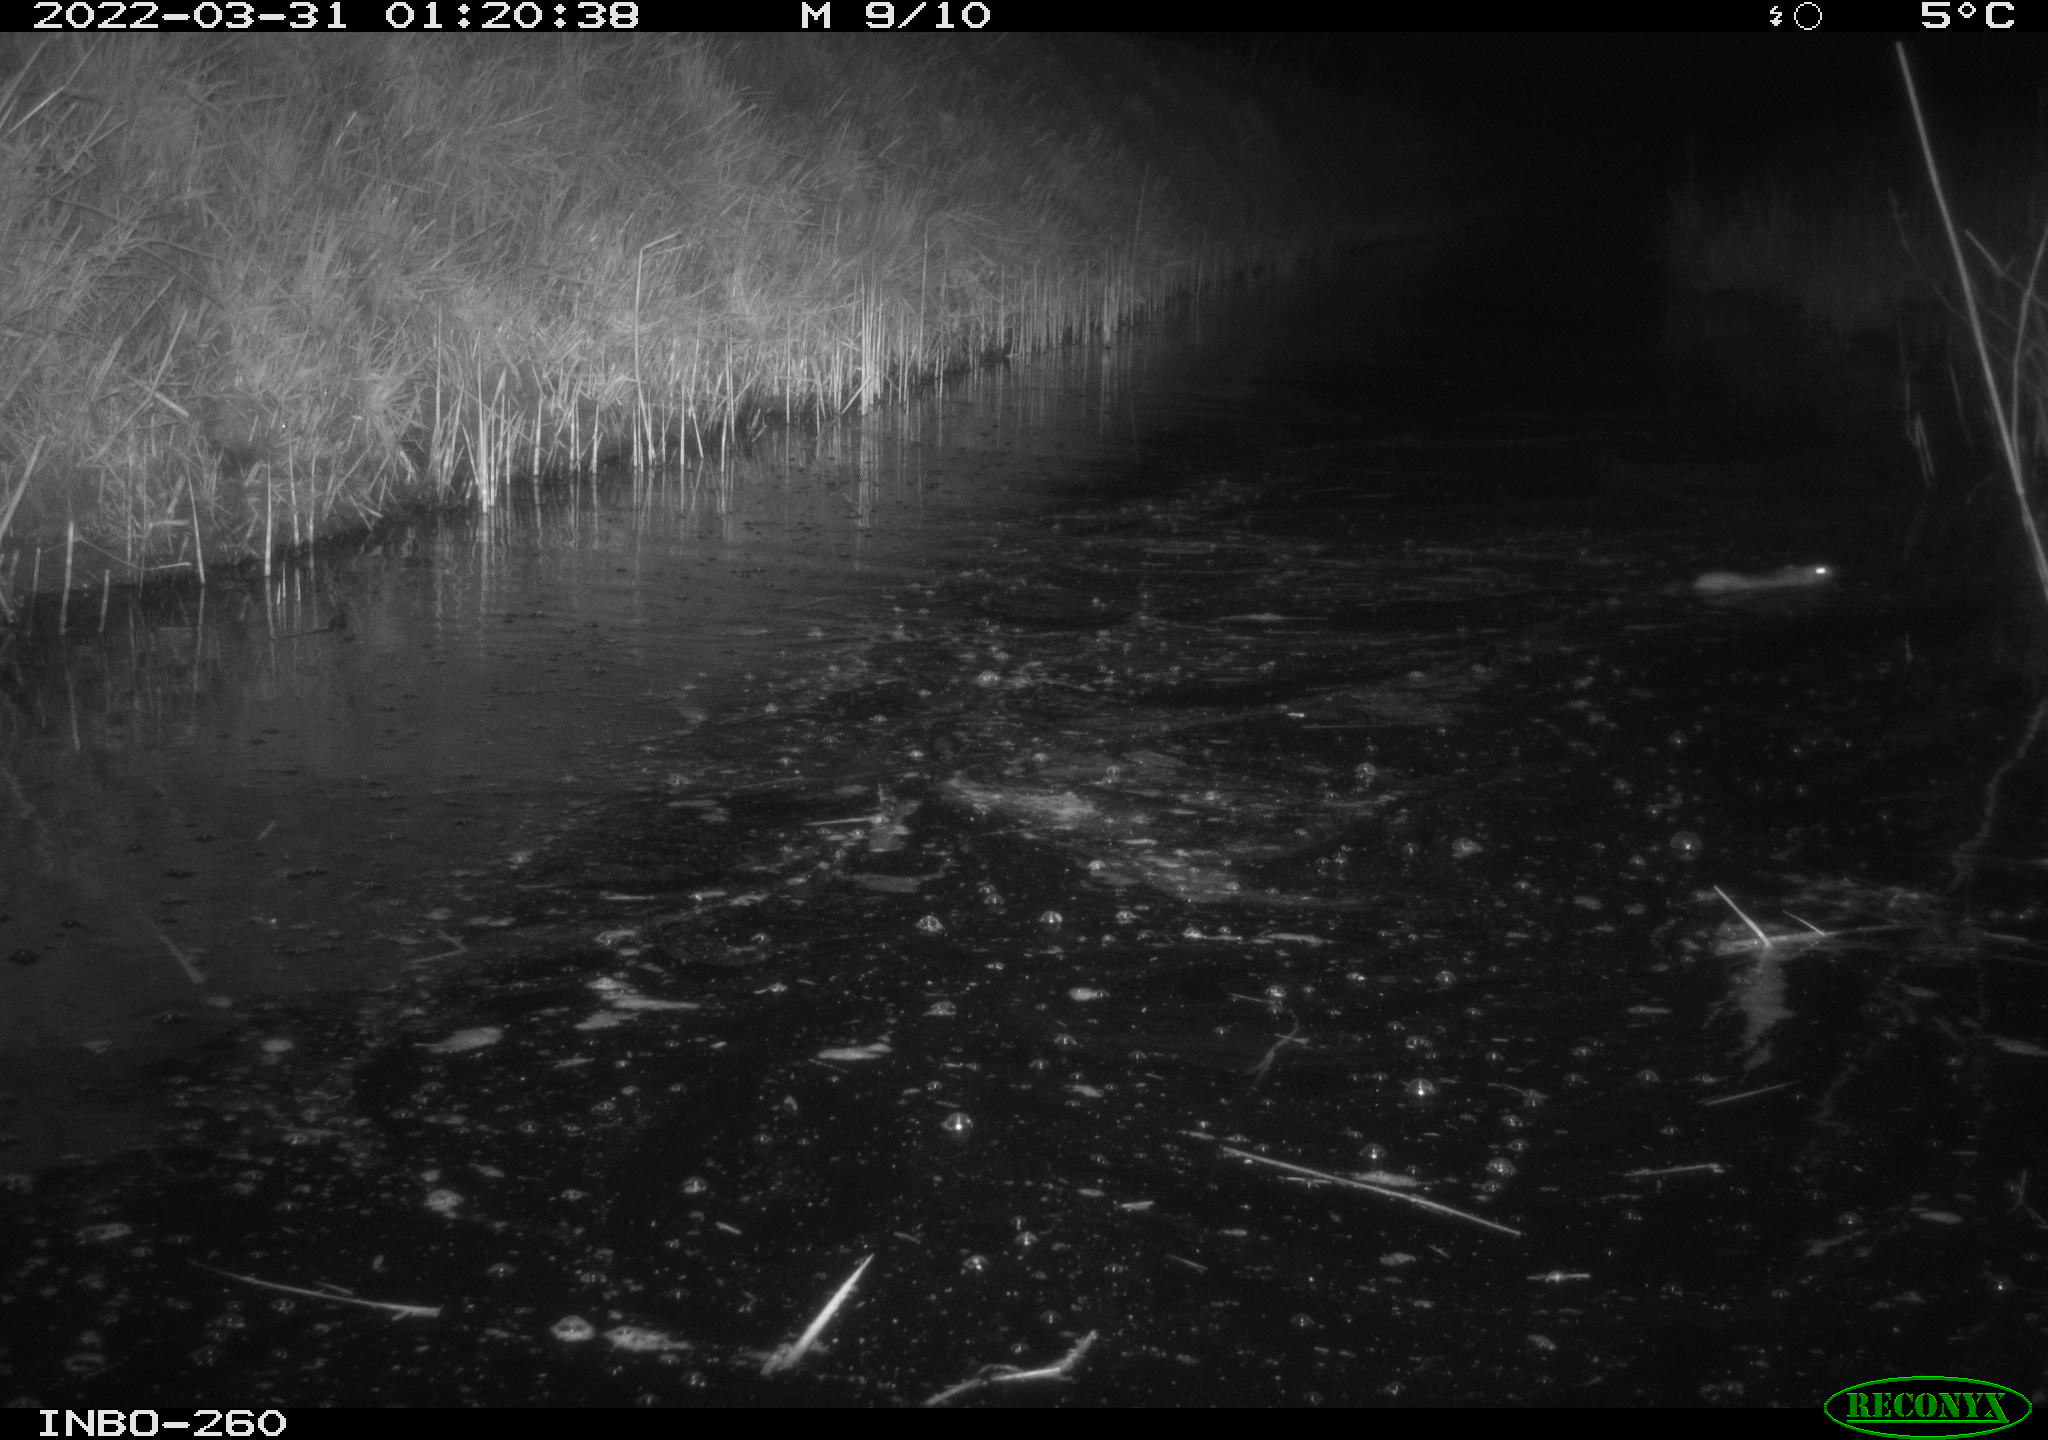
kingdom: Animalia
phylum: Chordata
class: Mammalia
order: Rodentia
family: Muridae
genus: Rattus
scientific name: Rattus norvegicus
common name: Brown rat
